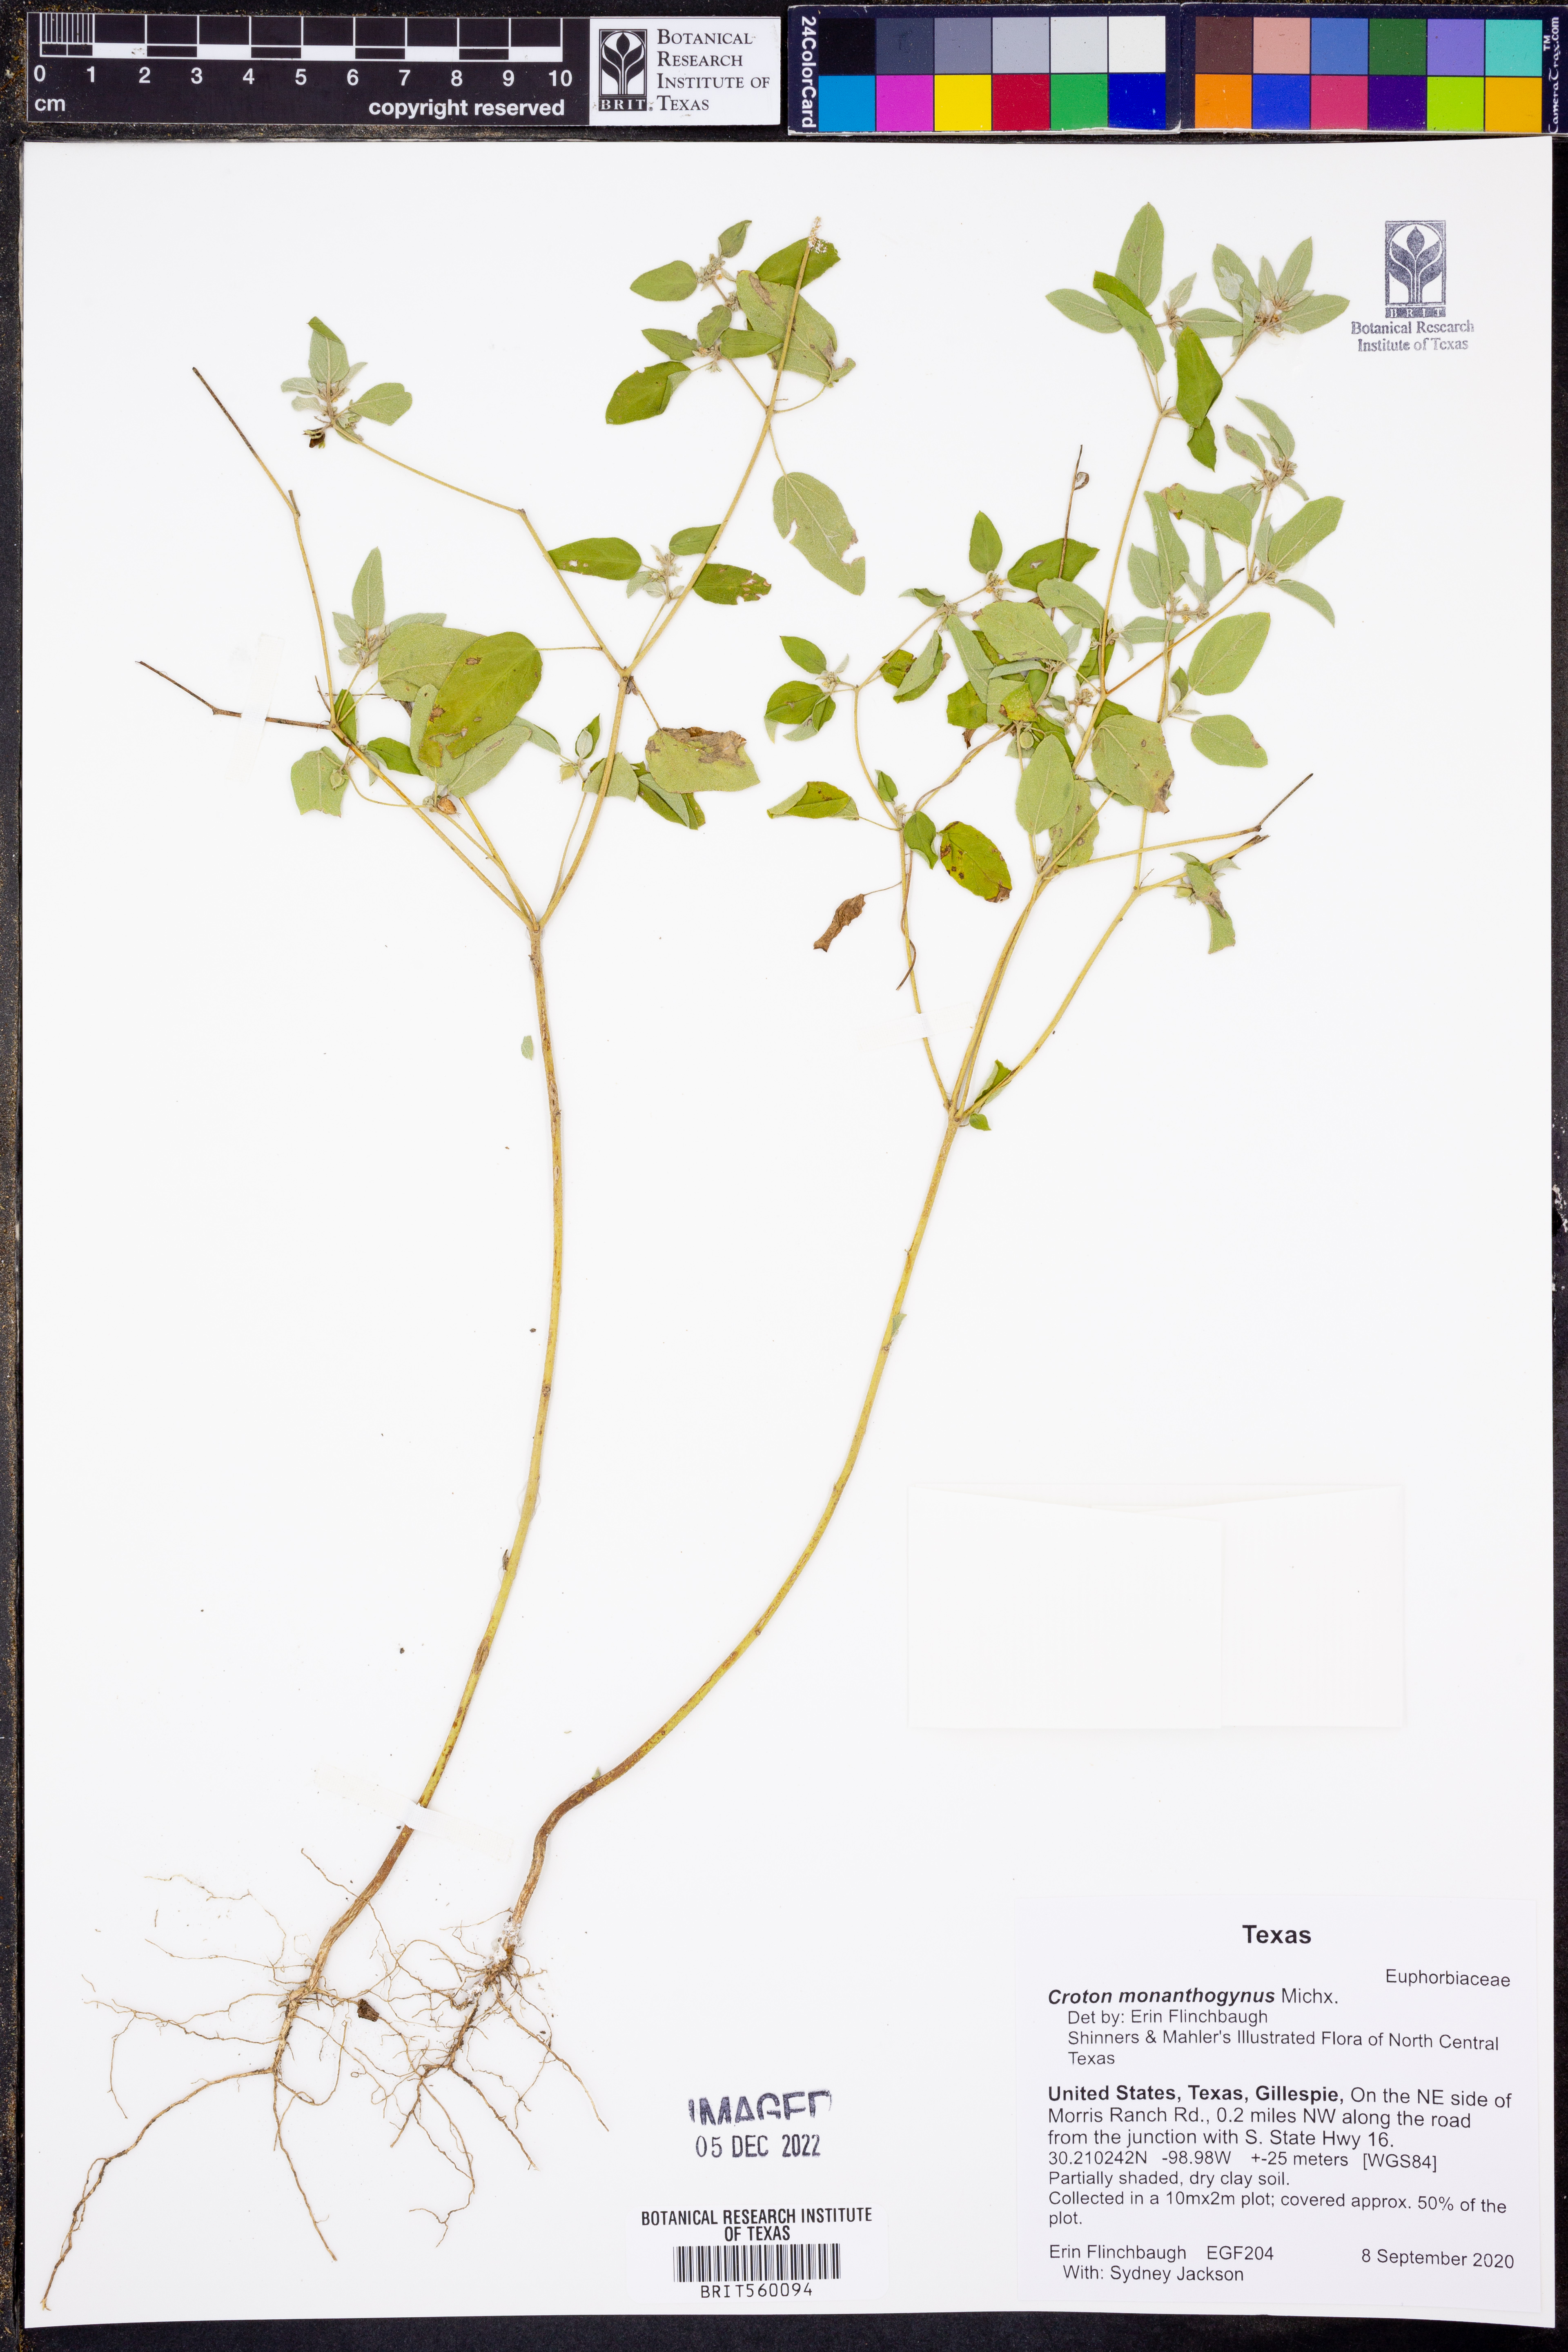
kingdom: Plantae
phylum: Tracheophyta
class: Magnoliopsida
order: Malpighiales
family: Euphorbiaceae
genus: Croton
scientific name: Croton monanthogynus
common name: One-seed croton
